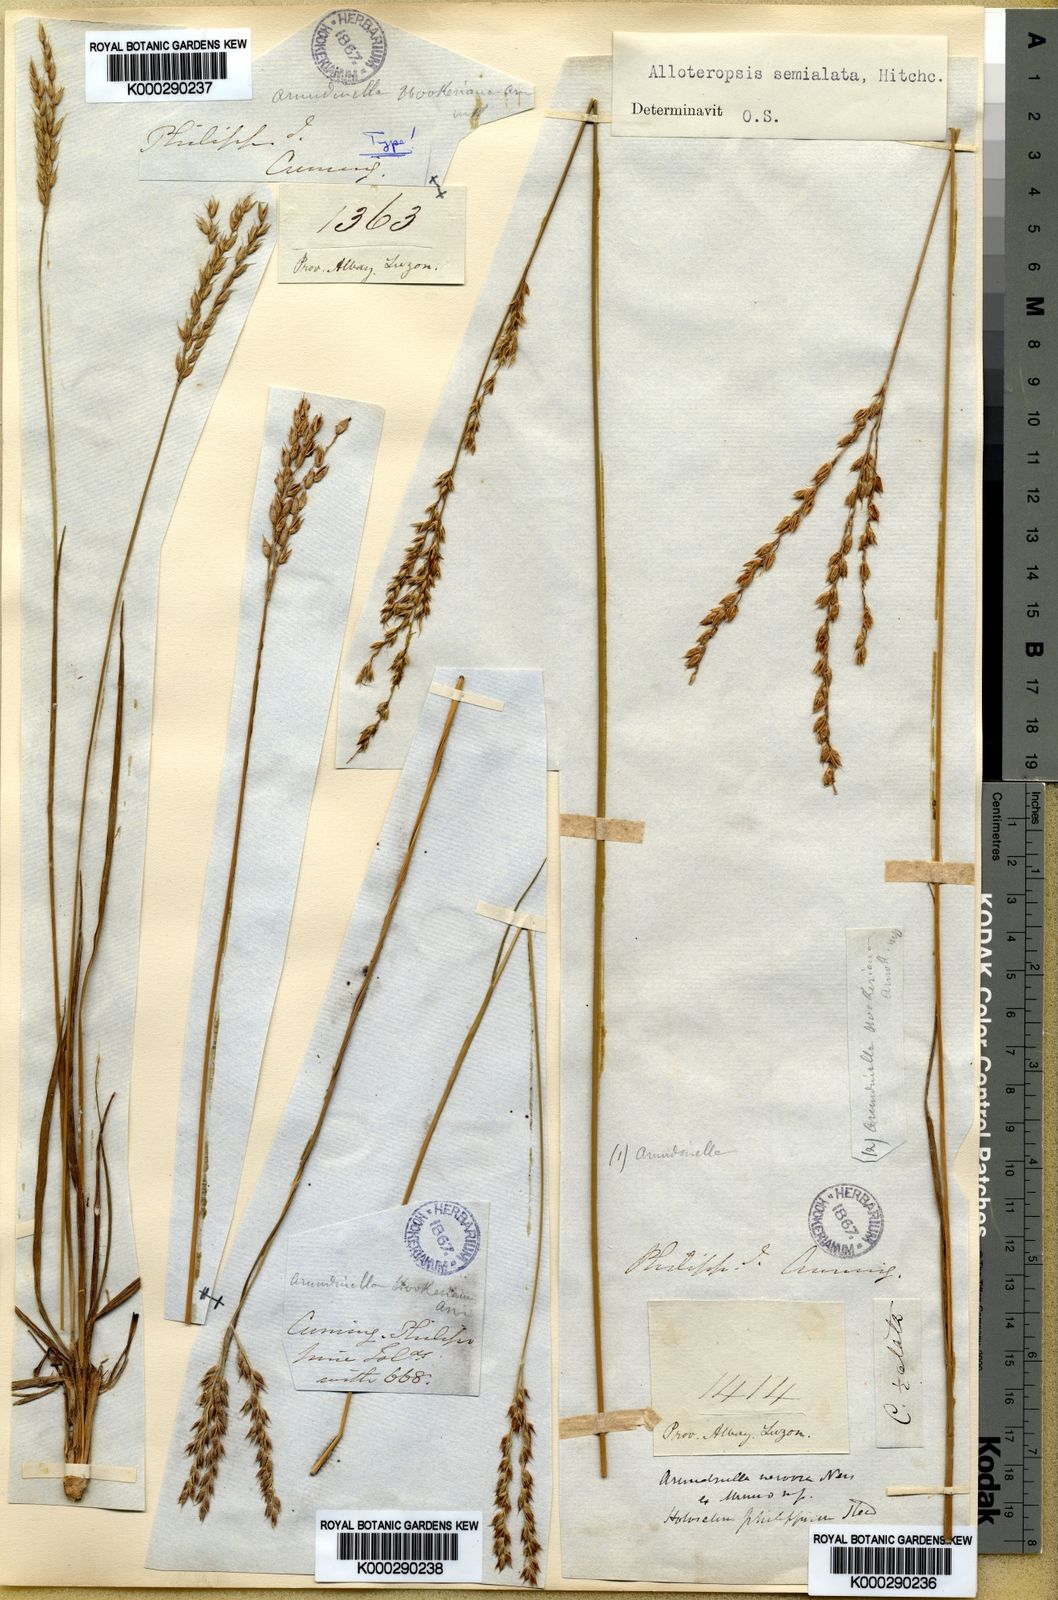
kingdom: Plantae
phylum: Tracheophyta
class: Liliopsida
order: Poales
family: Poaceae
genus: Alloteropsis
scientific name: Alloteropsis semialata
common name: Cockatoo grass
